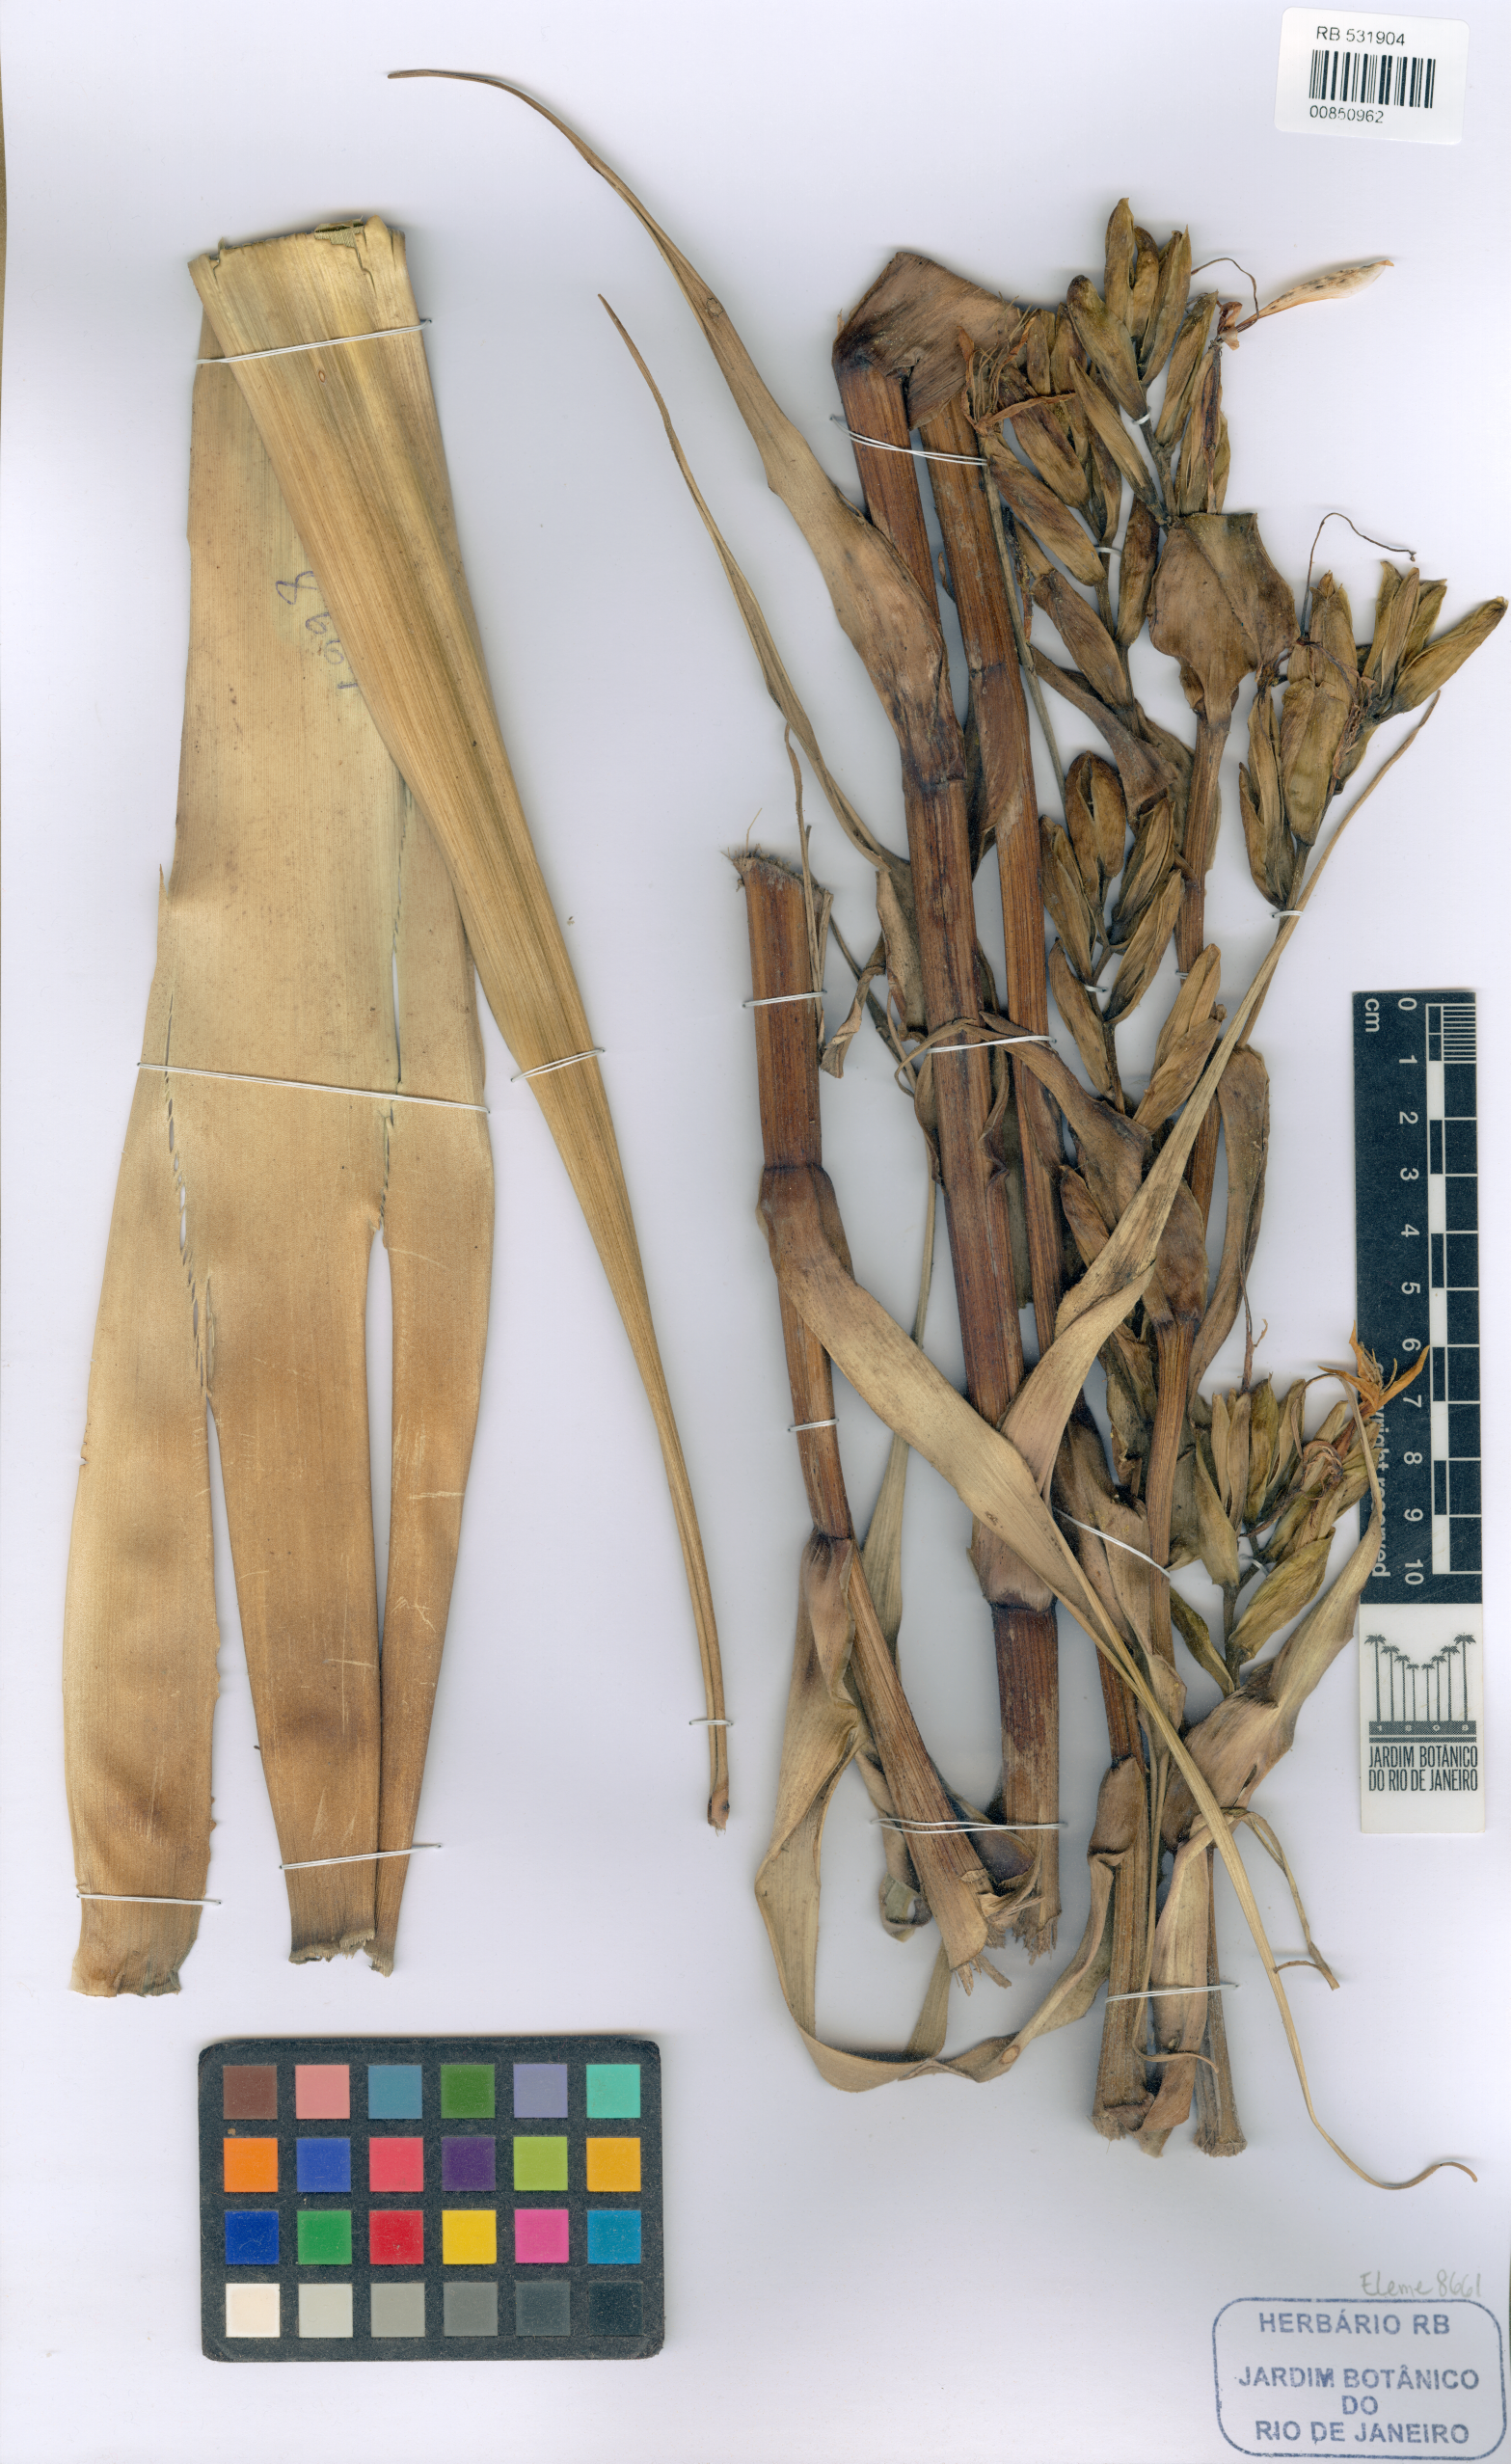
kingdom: Plantae
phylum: Tracheophyta
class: Liliopsida
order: Poales
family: Bromeliaceae
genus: Alcantarea
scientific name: Alcantarea occulta
